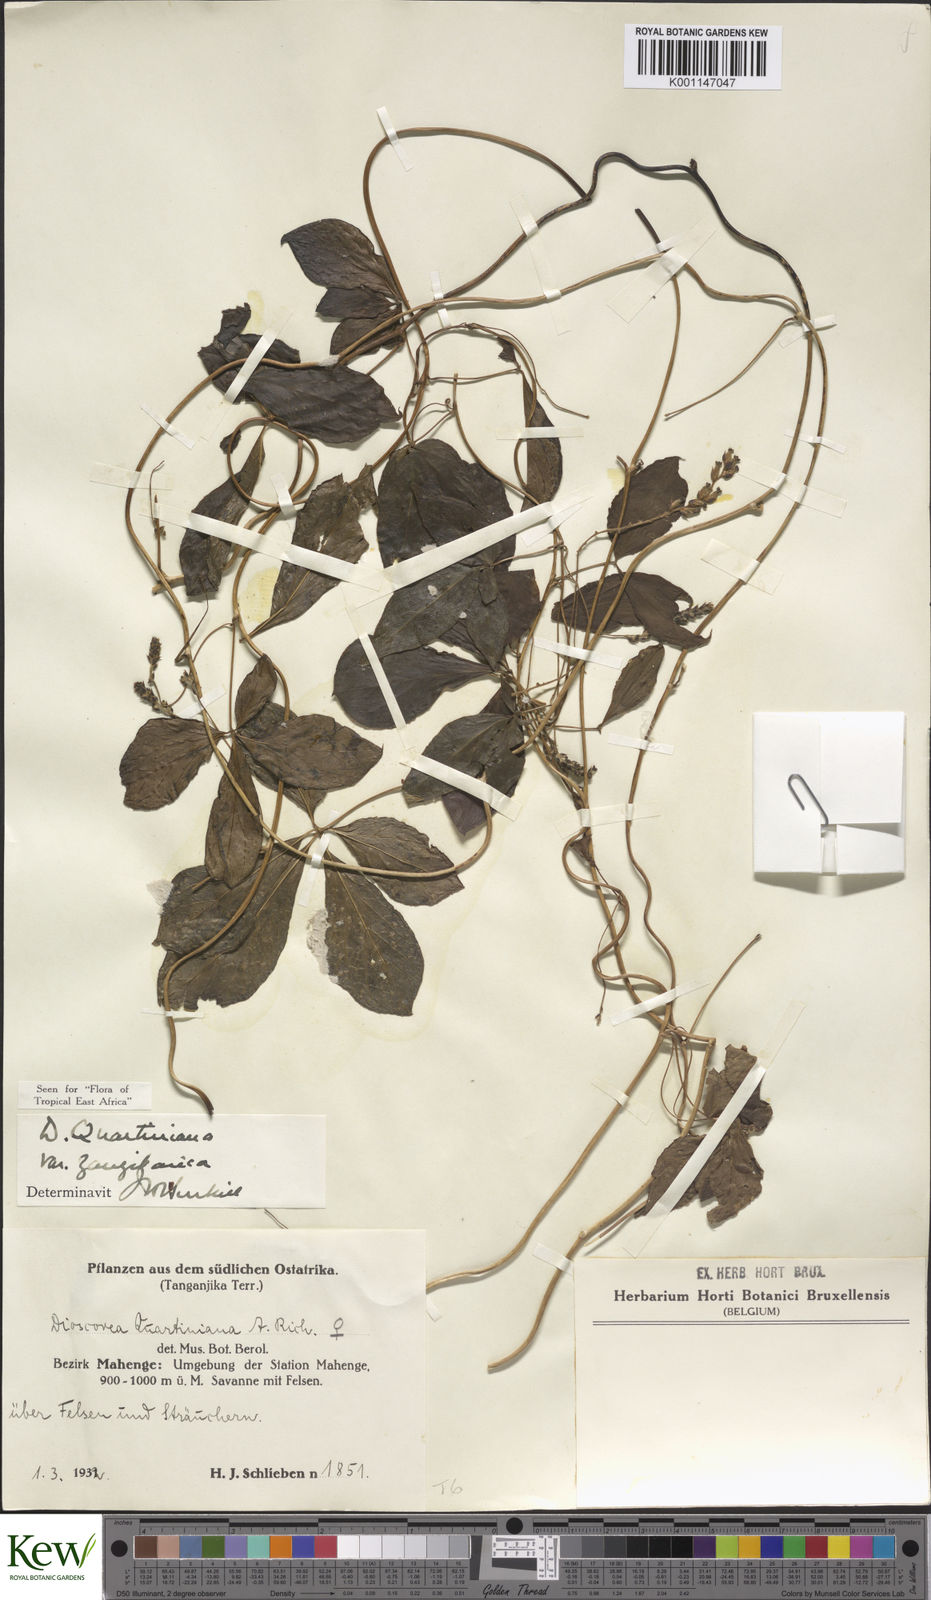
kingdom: Plantae
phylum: Tracheophyta
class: Liliopsida
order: Dioscoreales
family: Dioscoreaceae
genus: Dioscorea
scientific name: Dioscorea quartiniana
